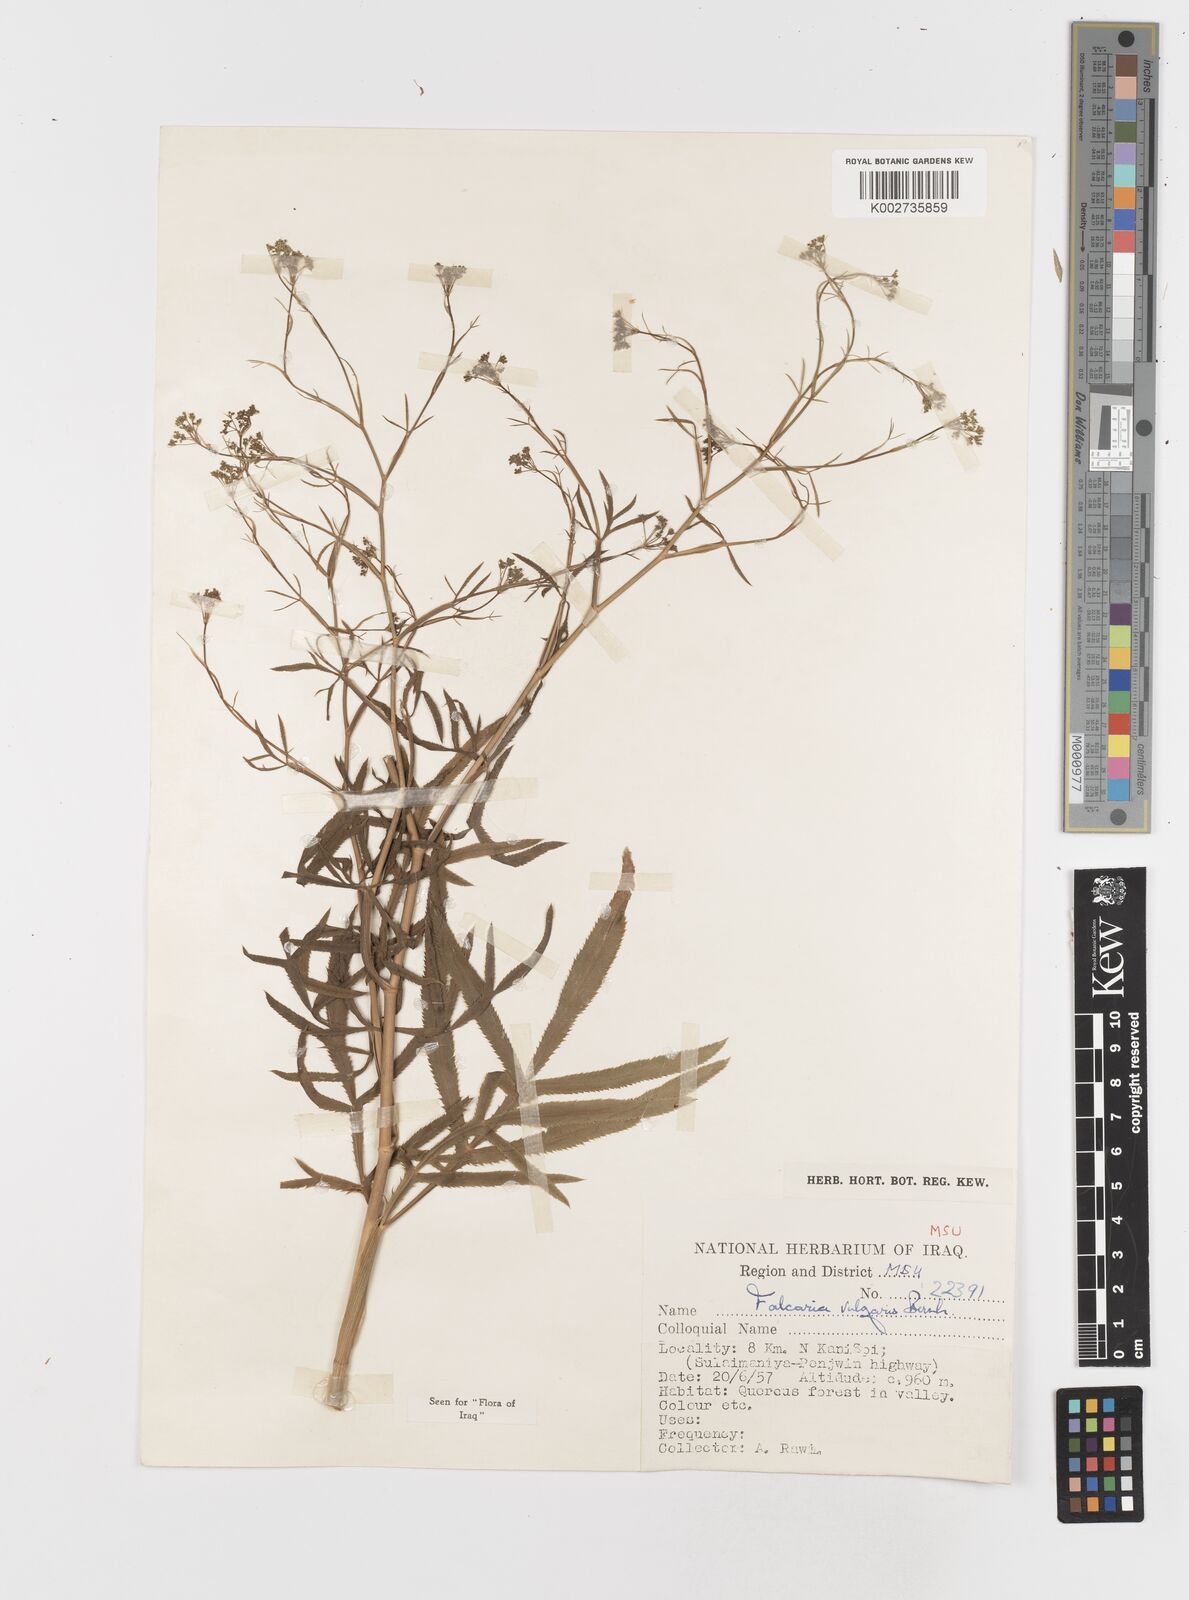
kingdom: Plantae
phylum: Tracheophyta
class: Magnoliopsida
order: Apiales
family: Apiaceae
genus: Falcaria
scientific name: Falcaria vulgaris
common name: Longleaf
